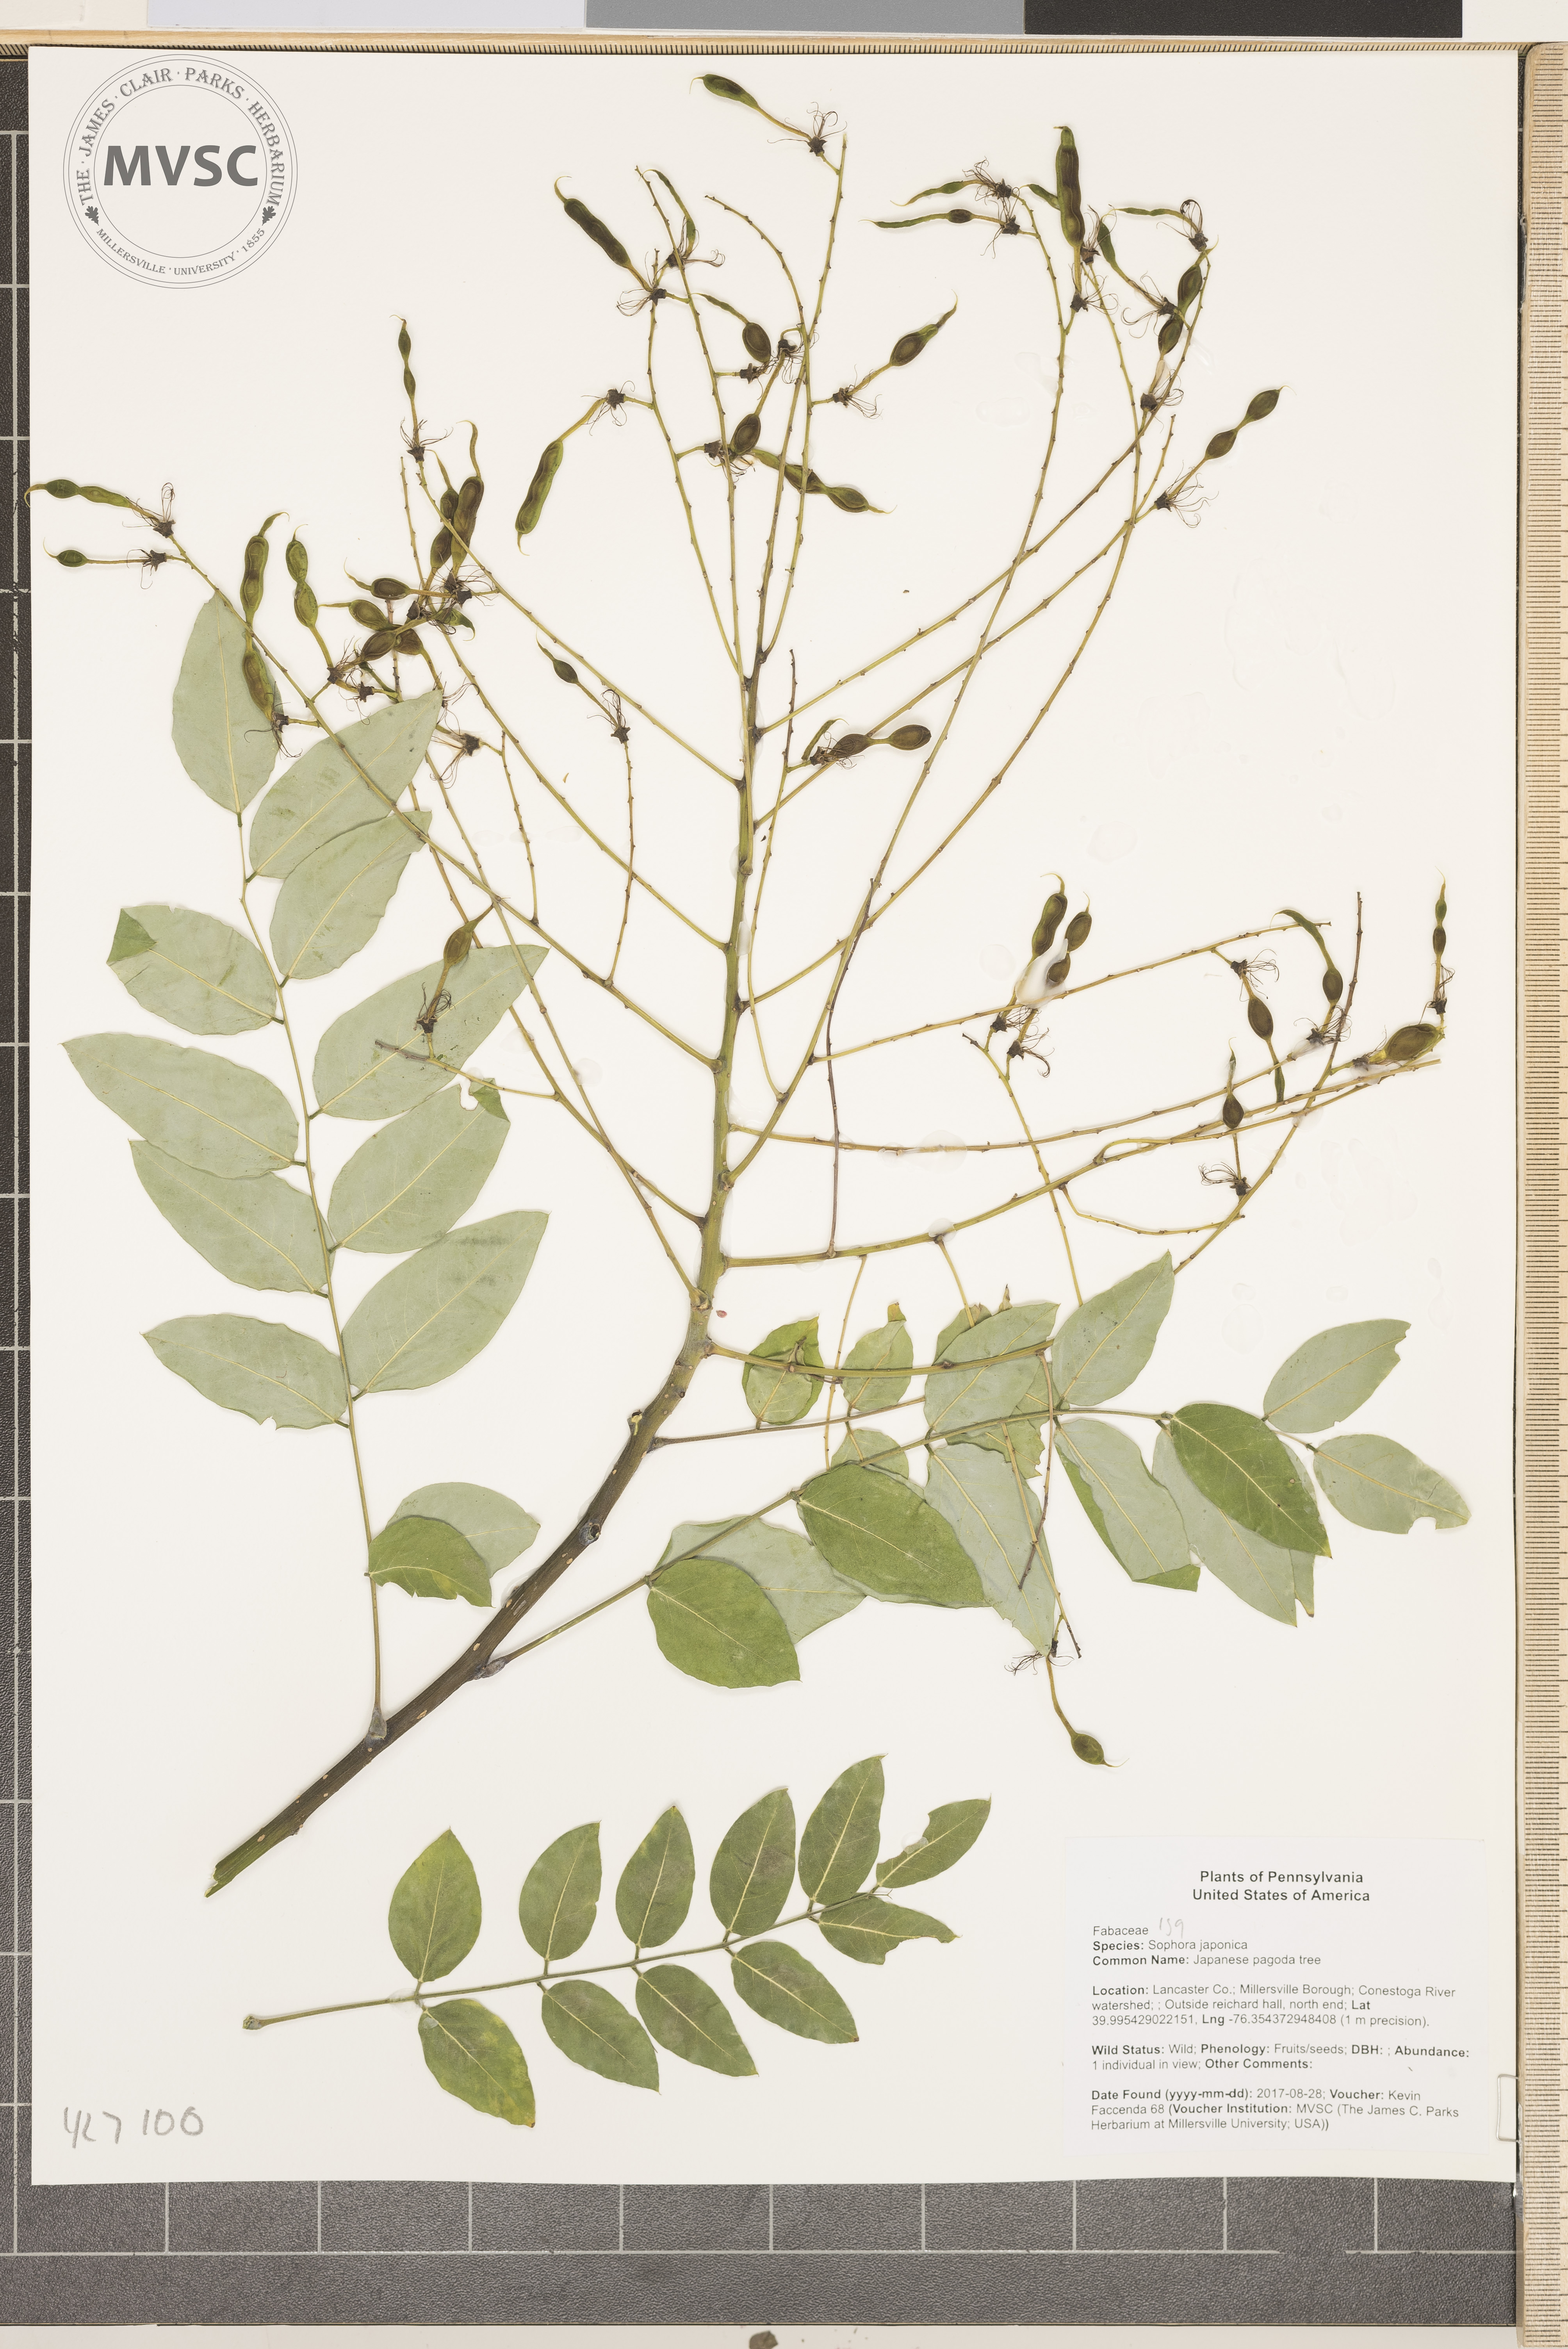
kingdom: Plantae
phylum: Tracheophyta
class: Magnoliopsida
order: Fabales
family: Fabaceae
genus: Styphnolobium
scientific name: Styphnolobium japonicum
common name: Pagoda tree
